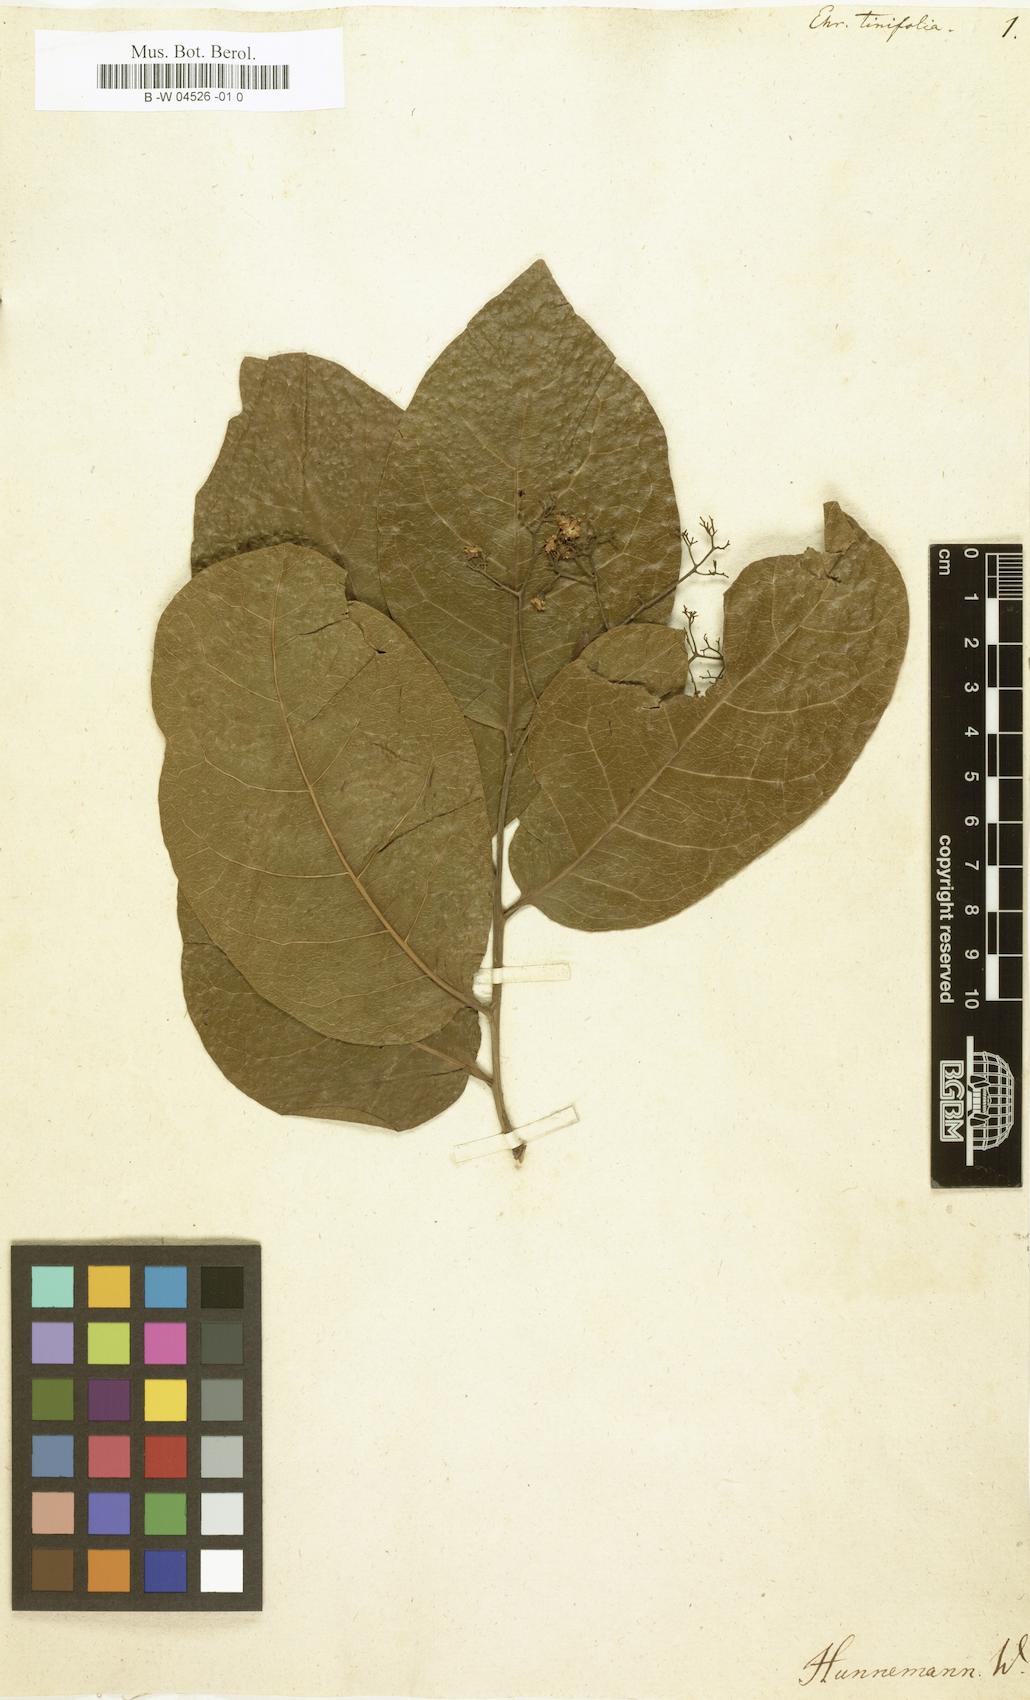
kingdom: Plantae
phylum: Tracheophyta
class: Magnoliopsida
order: Boraginales
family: Ehretiaceae
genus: Ehretia
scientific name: Ehretia tinifolia
